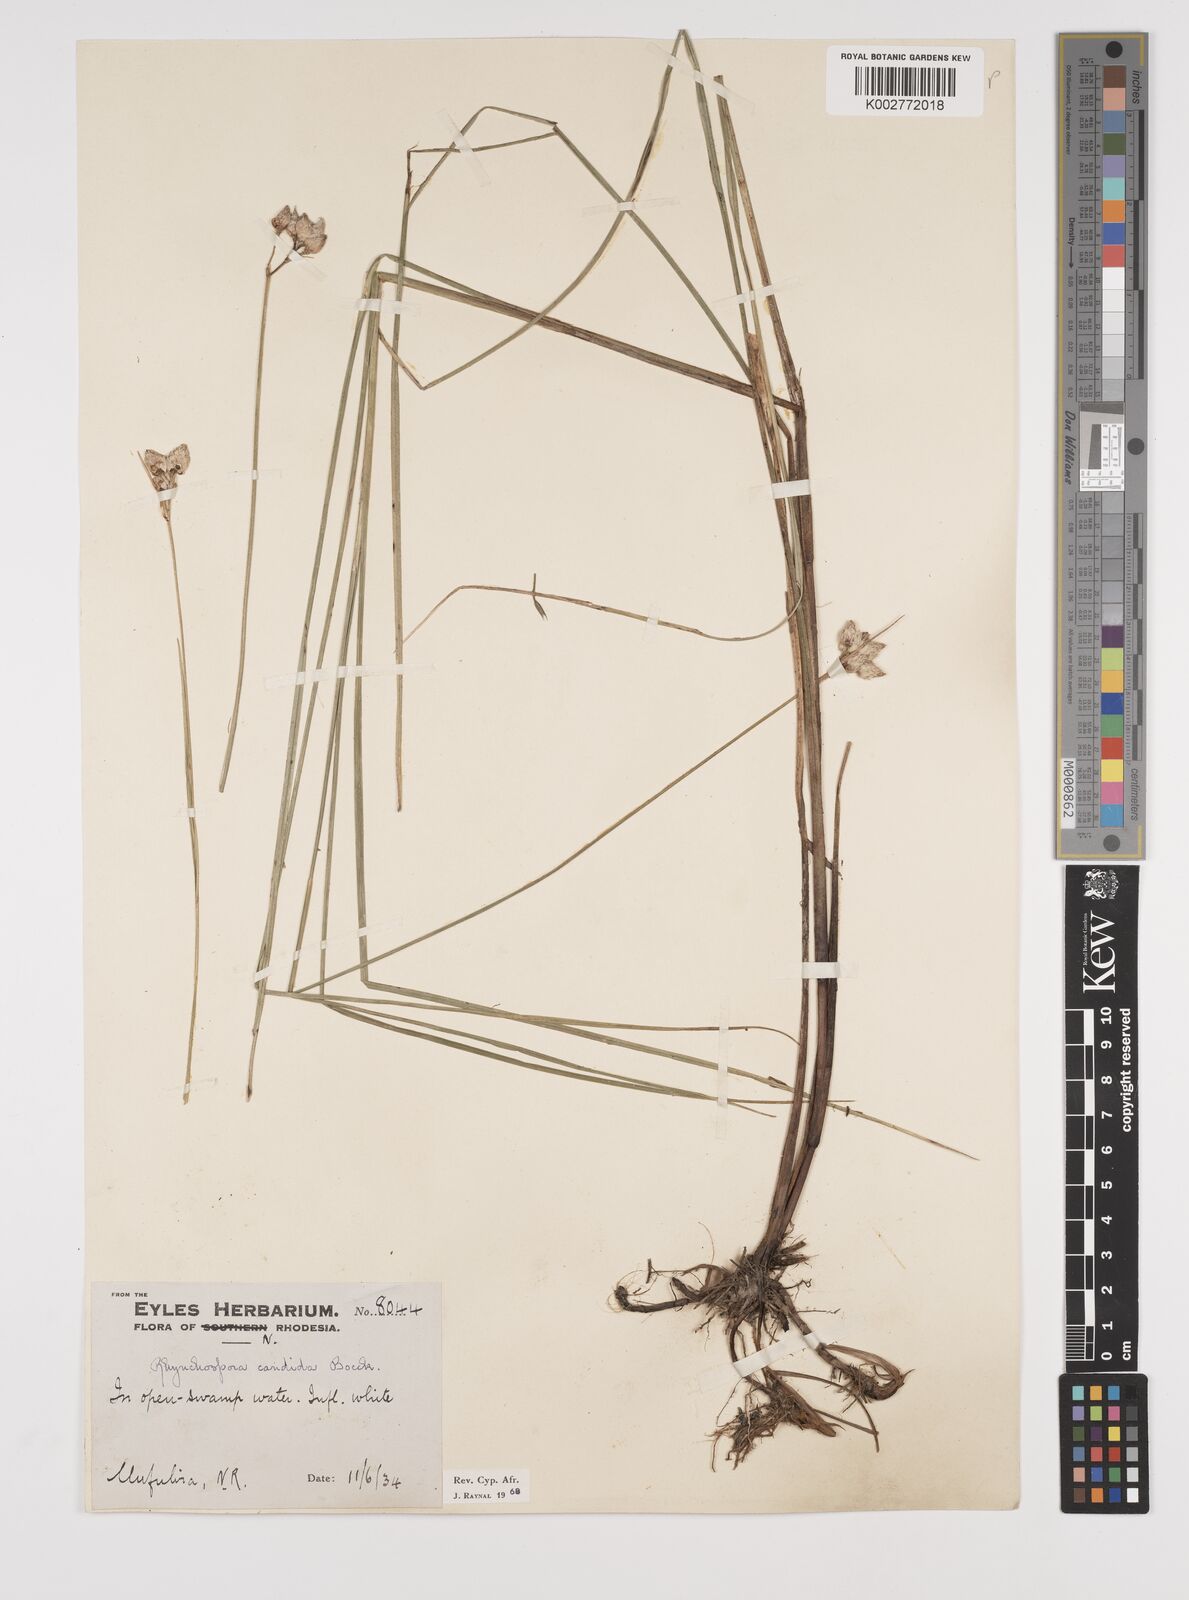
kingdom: Plantae
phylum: Tracheophyta
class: Liliopsida
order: Poales
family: Cyperaceae
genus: Rhynchospora
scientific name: Rhynchospora candida
